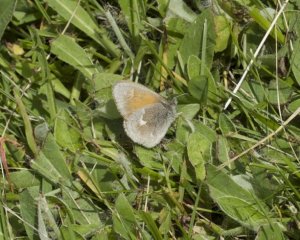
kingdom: Animalia
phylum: Arthropoda
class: Insecta
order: Lepidoptera
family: Nymphalidae
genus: Coenonympha
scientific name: Coenonympha tullia
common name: Large Heath
